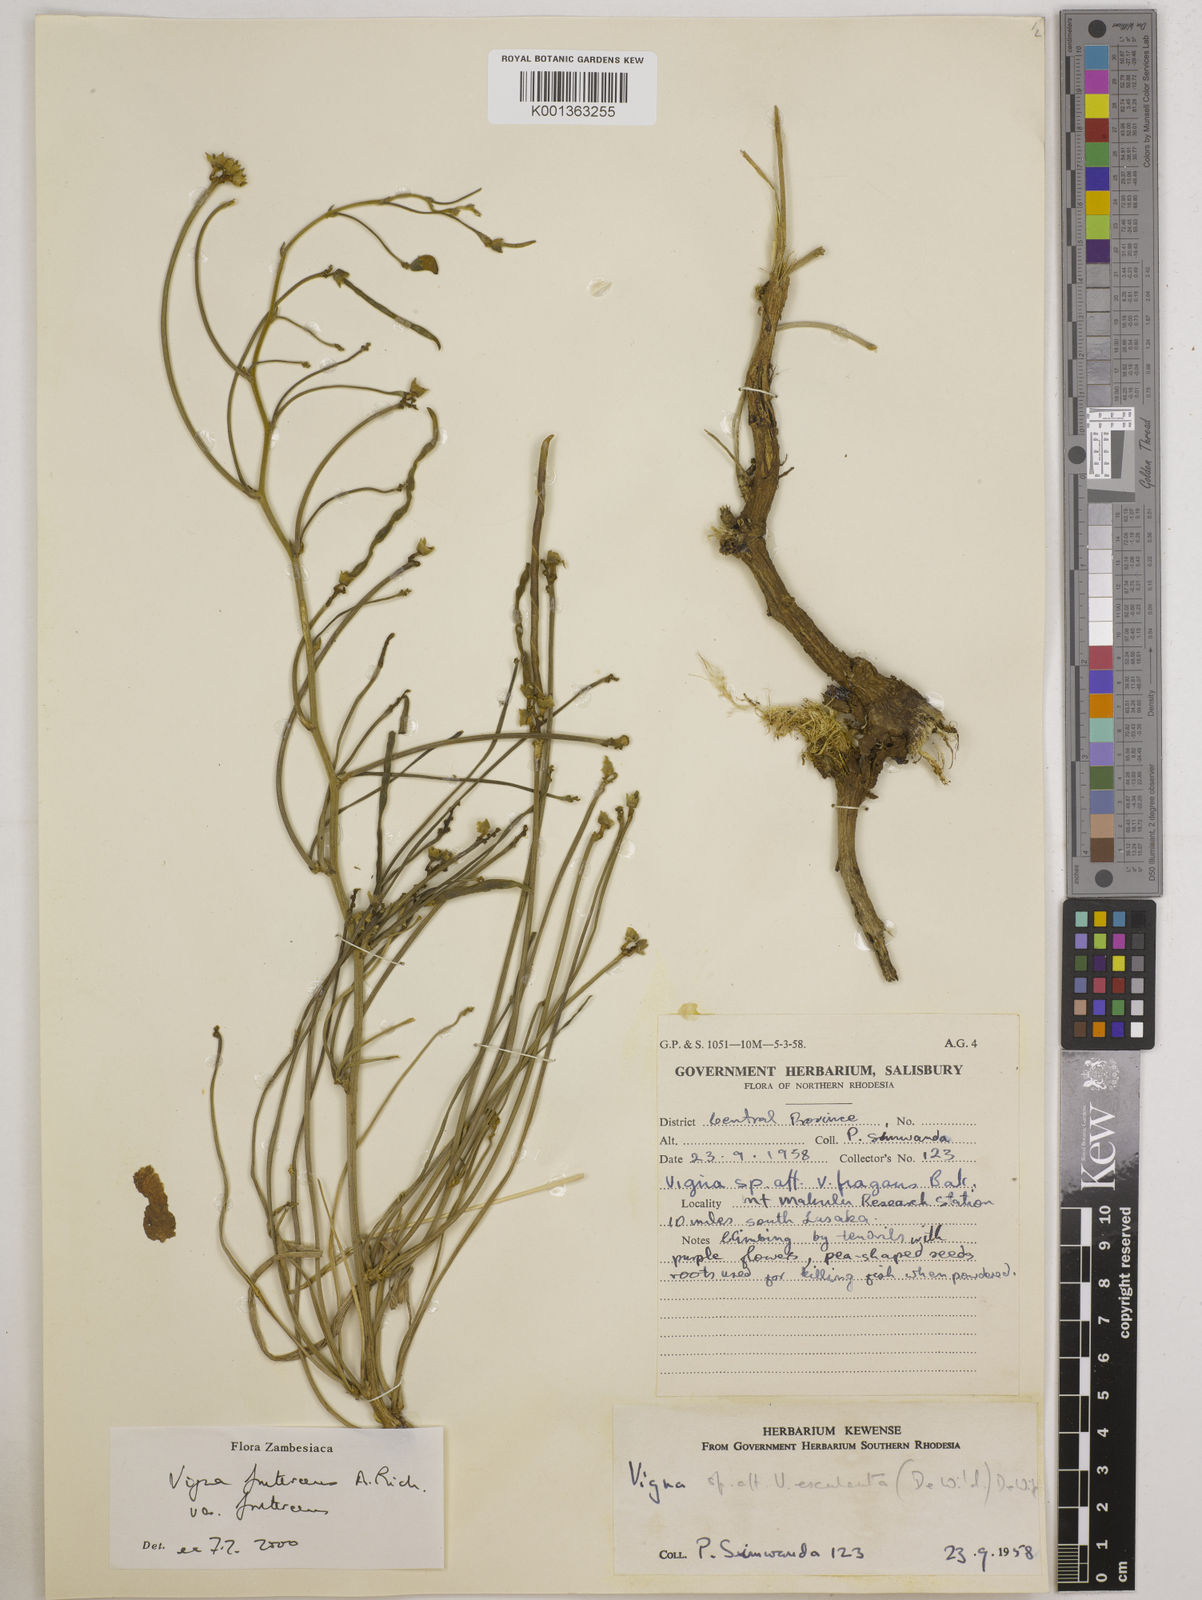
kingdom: Plantae
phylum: Tracheophyta
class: Magnoliopsida
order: Fabales
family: Fabaceae
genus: Vigna
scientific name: Vigna
